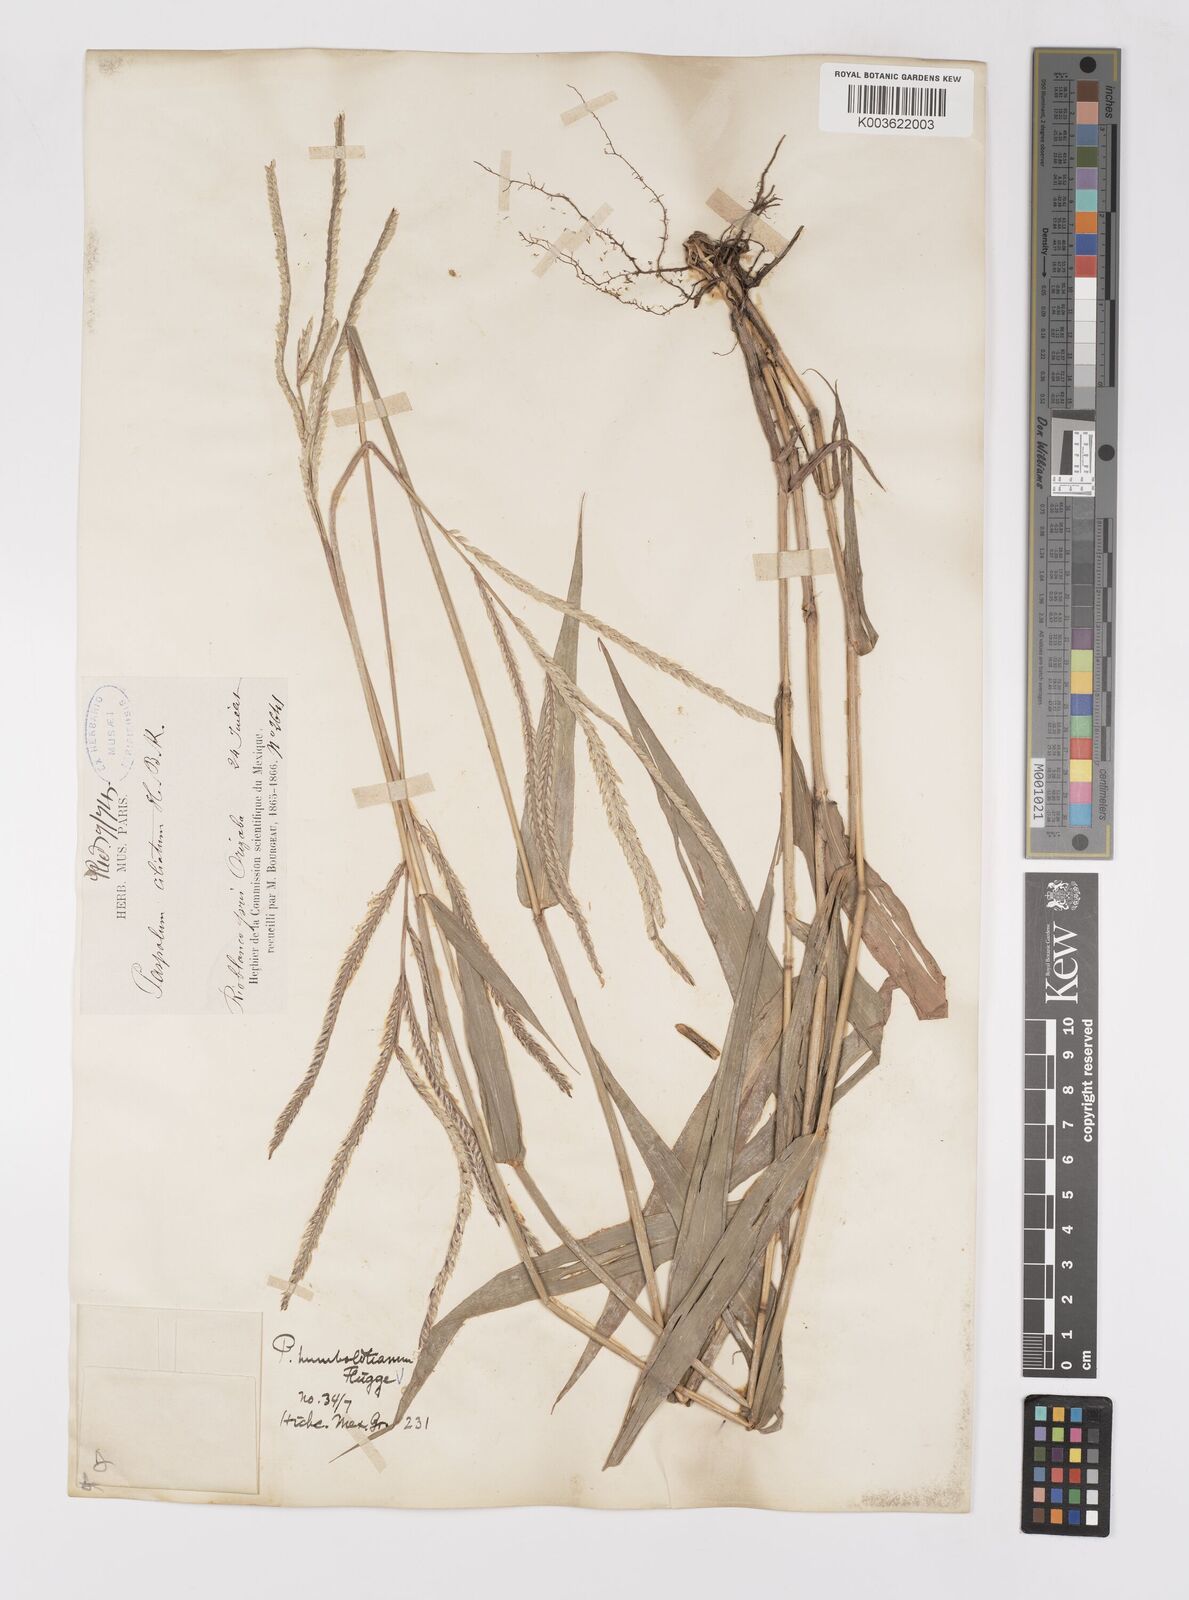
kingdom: Plantae
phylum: Tracheophyta
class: Liliopsida
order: Poales
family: Poaceae
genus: Paspalum
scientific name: Paspalum humboldtianum
